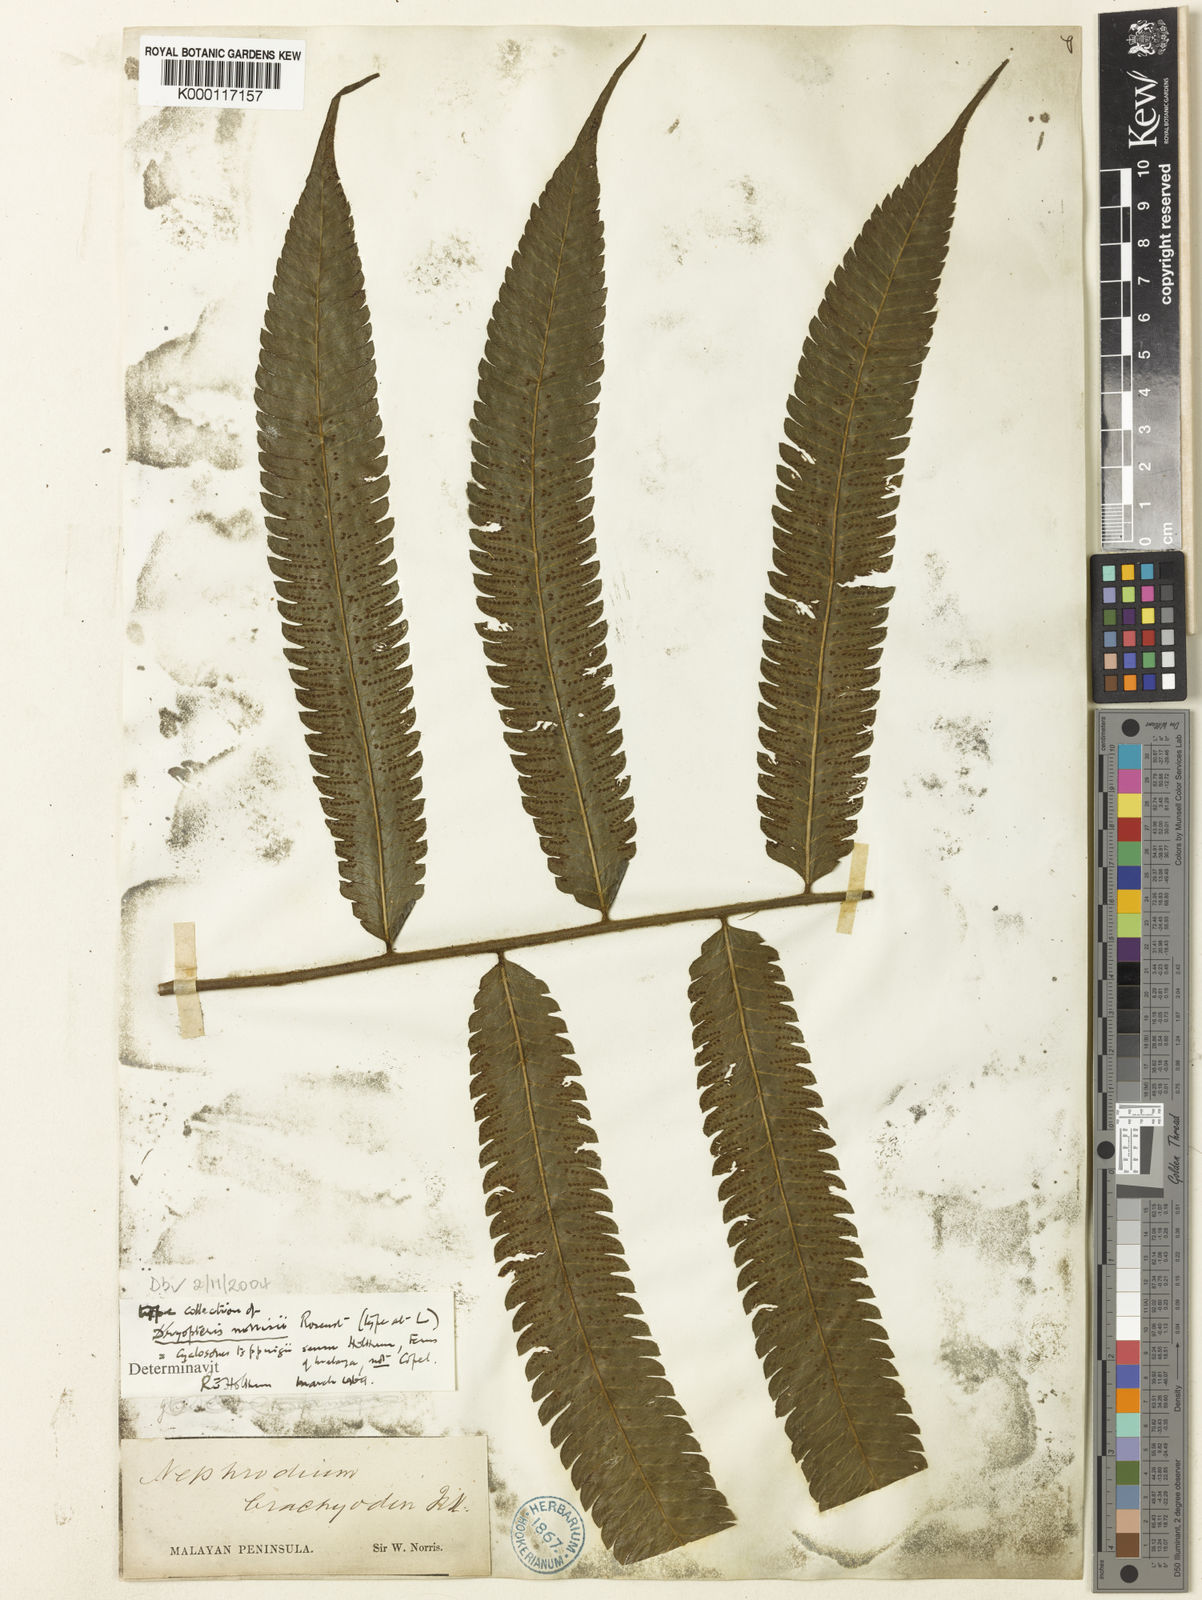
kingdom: Plantae
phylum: Tracheophyta
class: Polypodiopsida
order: Polypodiales
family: Thelypteridaceae
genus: Sphaerostephanos
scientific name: Sphaerostephanos norrisii
